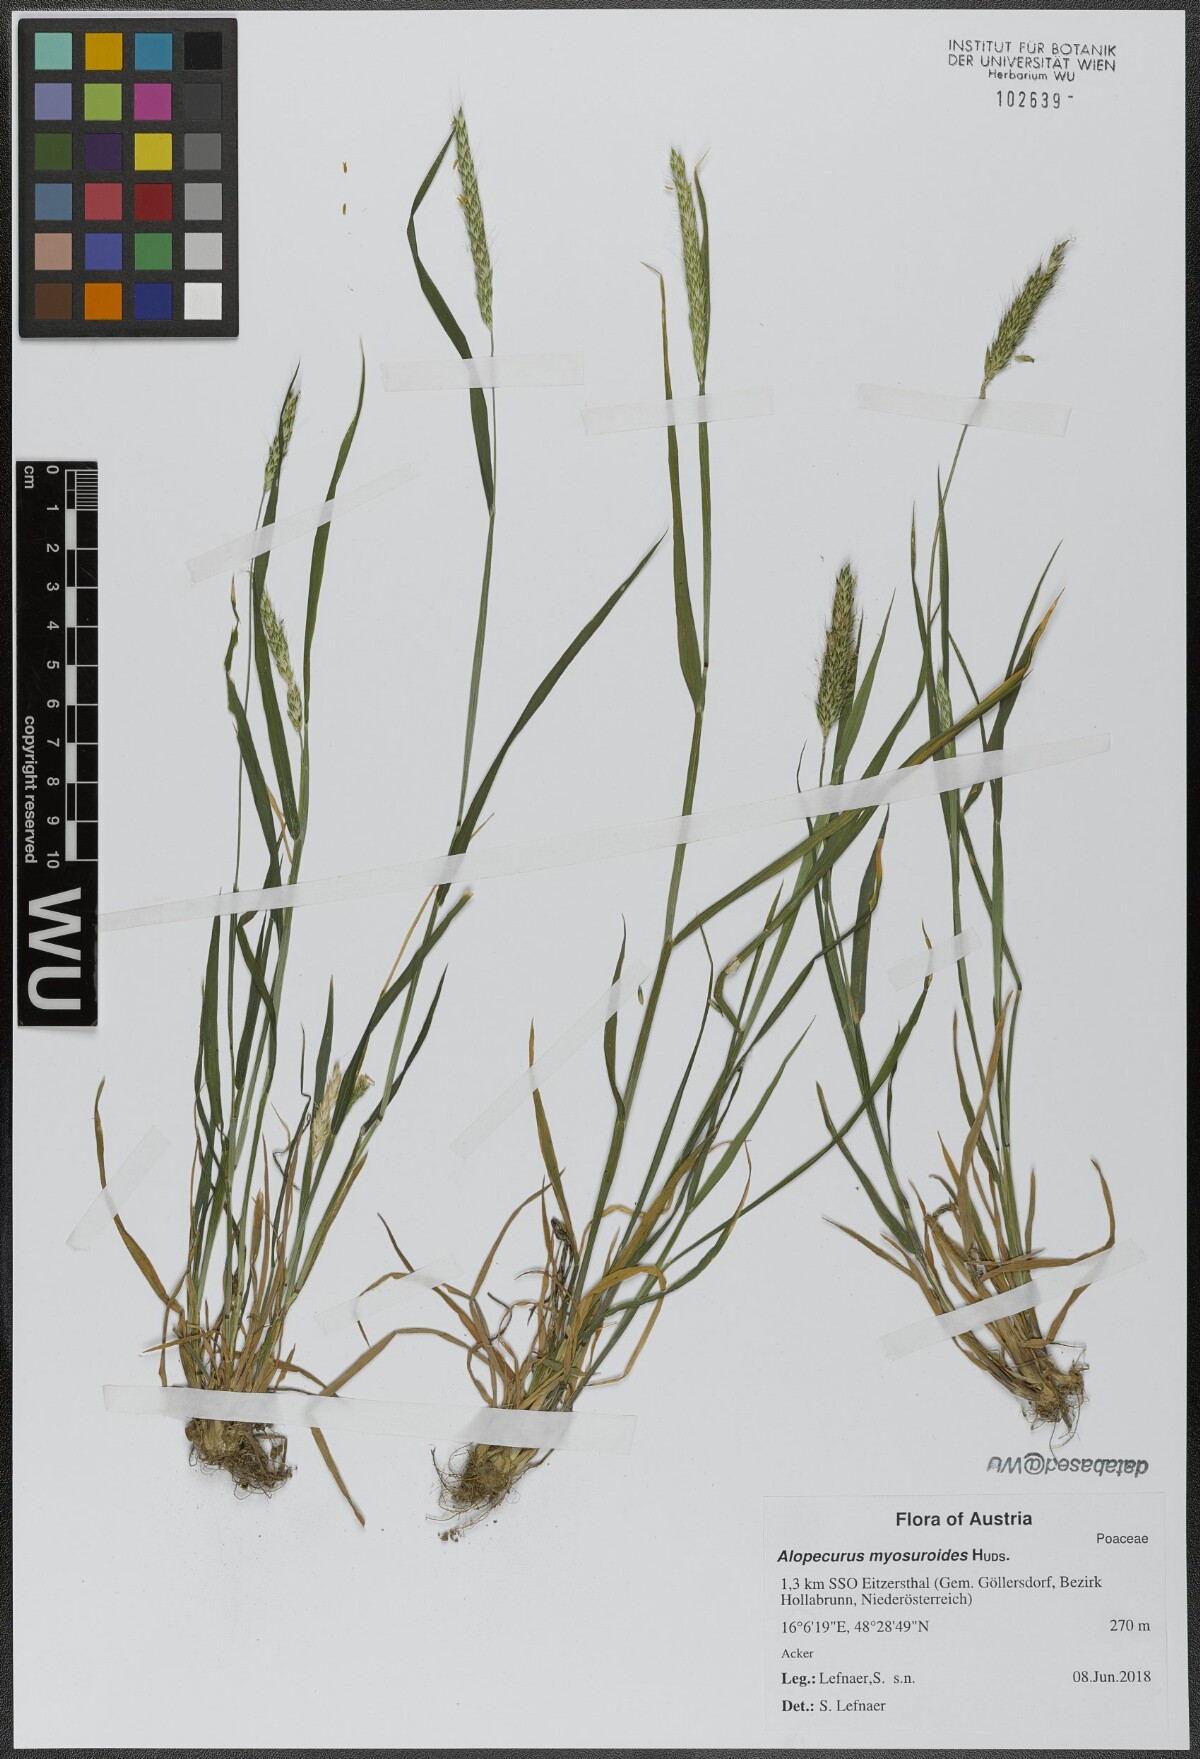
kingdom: Plantae
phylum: Tracheophyta
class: Liliopsida
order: Poales
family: Poaceae
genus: Alopecurus
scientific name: Alopecurus myosuroides
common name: Black-grass
